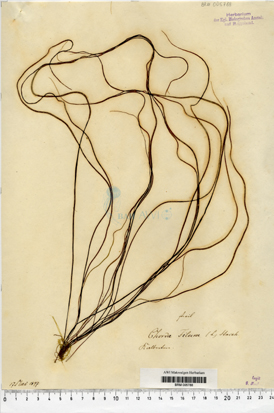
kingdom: Chromista
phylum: Ochrophyta
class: Phaeophyceae
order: Laminariales
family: Chordaceae
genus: Chorda
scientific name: Chorda filum
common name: Mermaid's tresses
